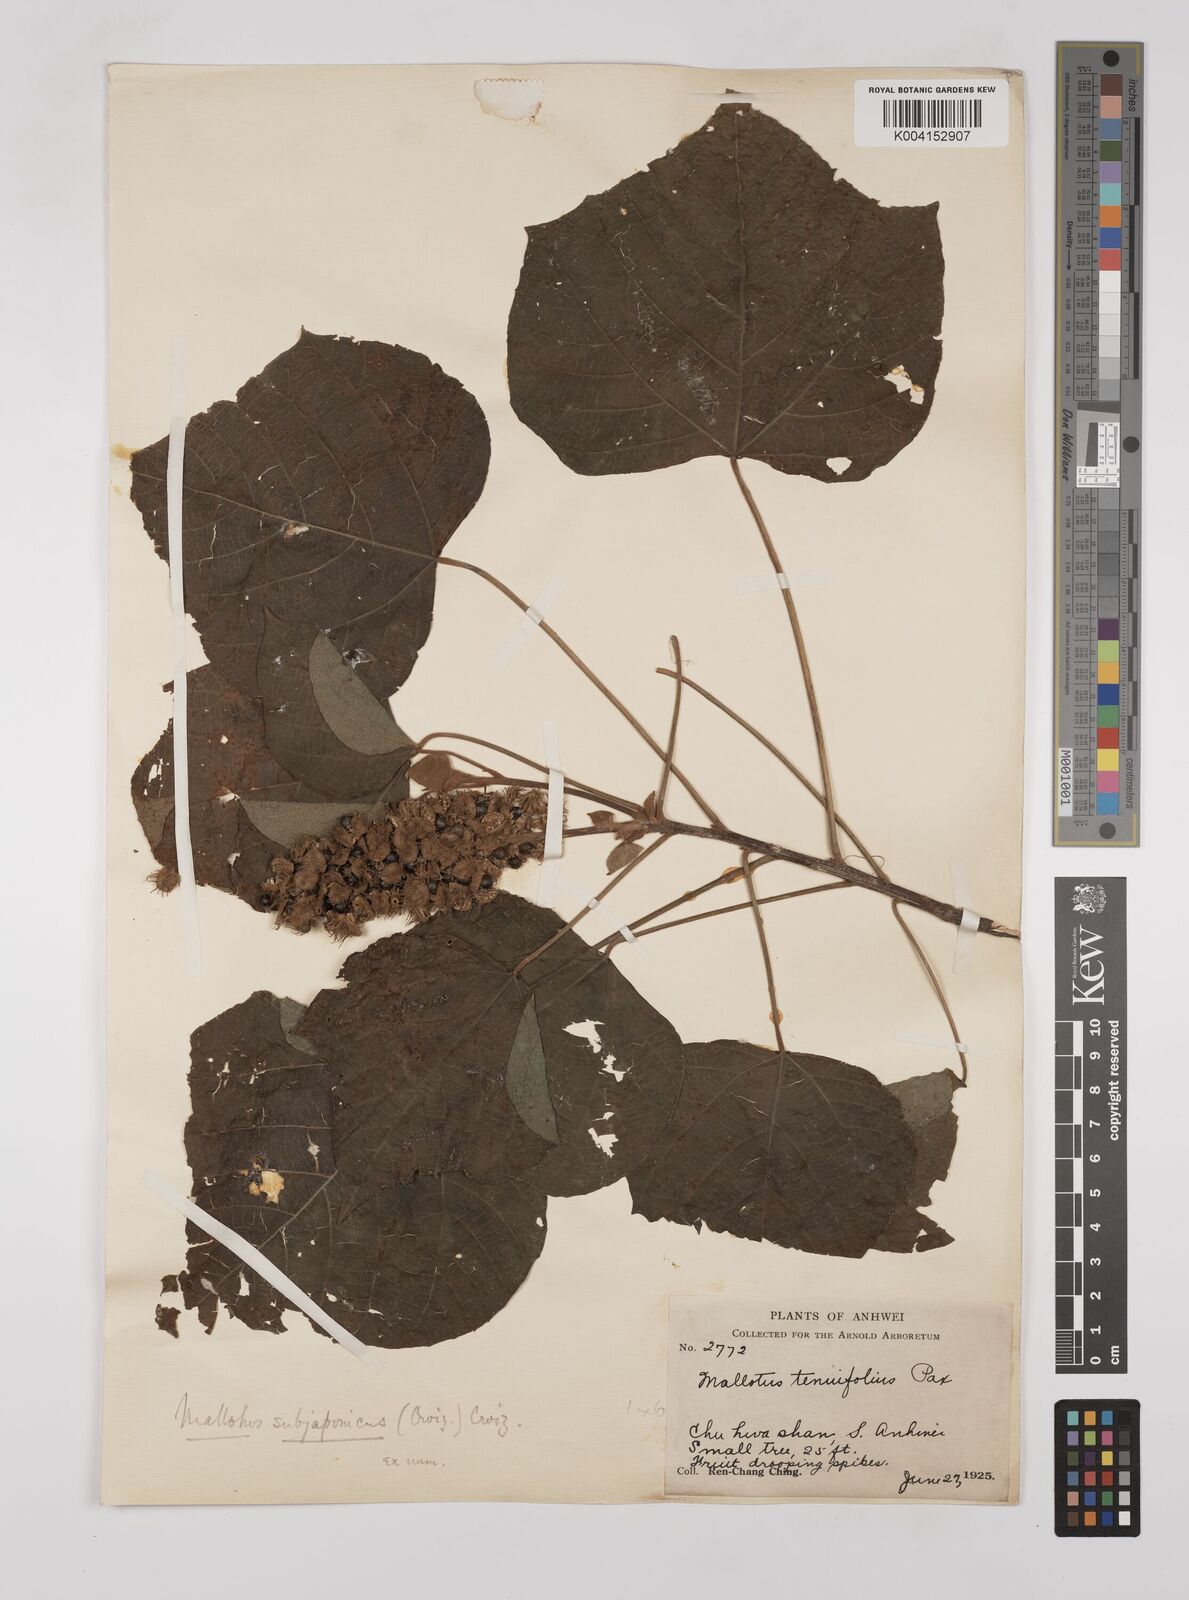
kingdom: Plantae
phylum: Tracheophyta
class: Magnoliopsida
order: Malpighiales
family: Euphorbiaceae
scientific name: Euphorbiaceae
